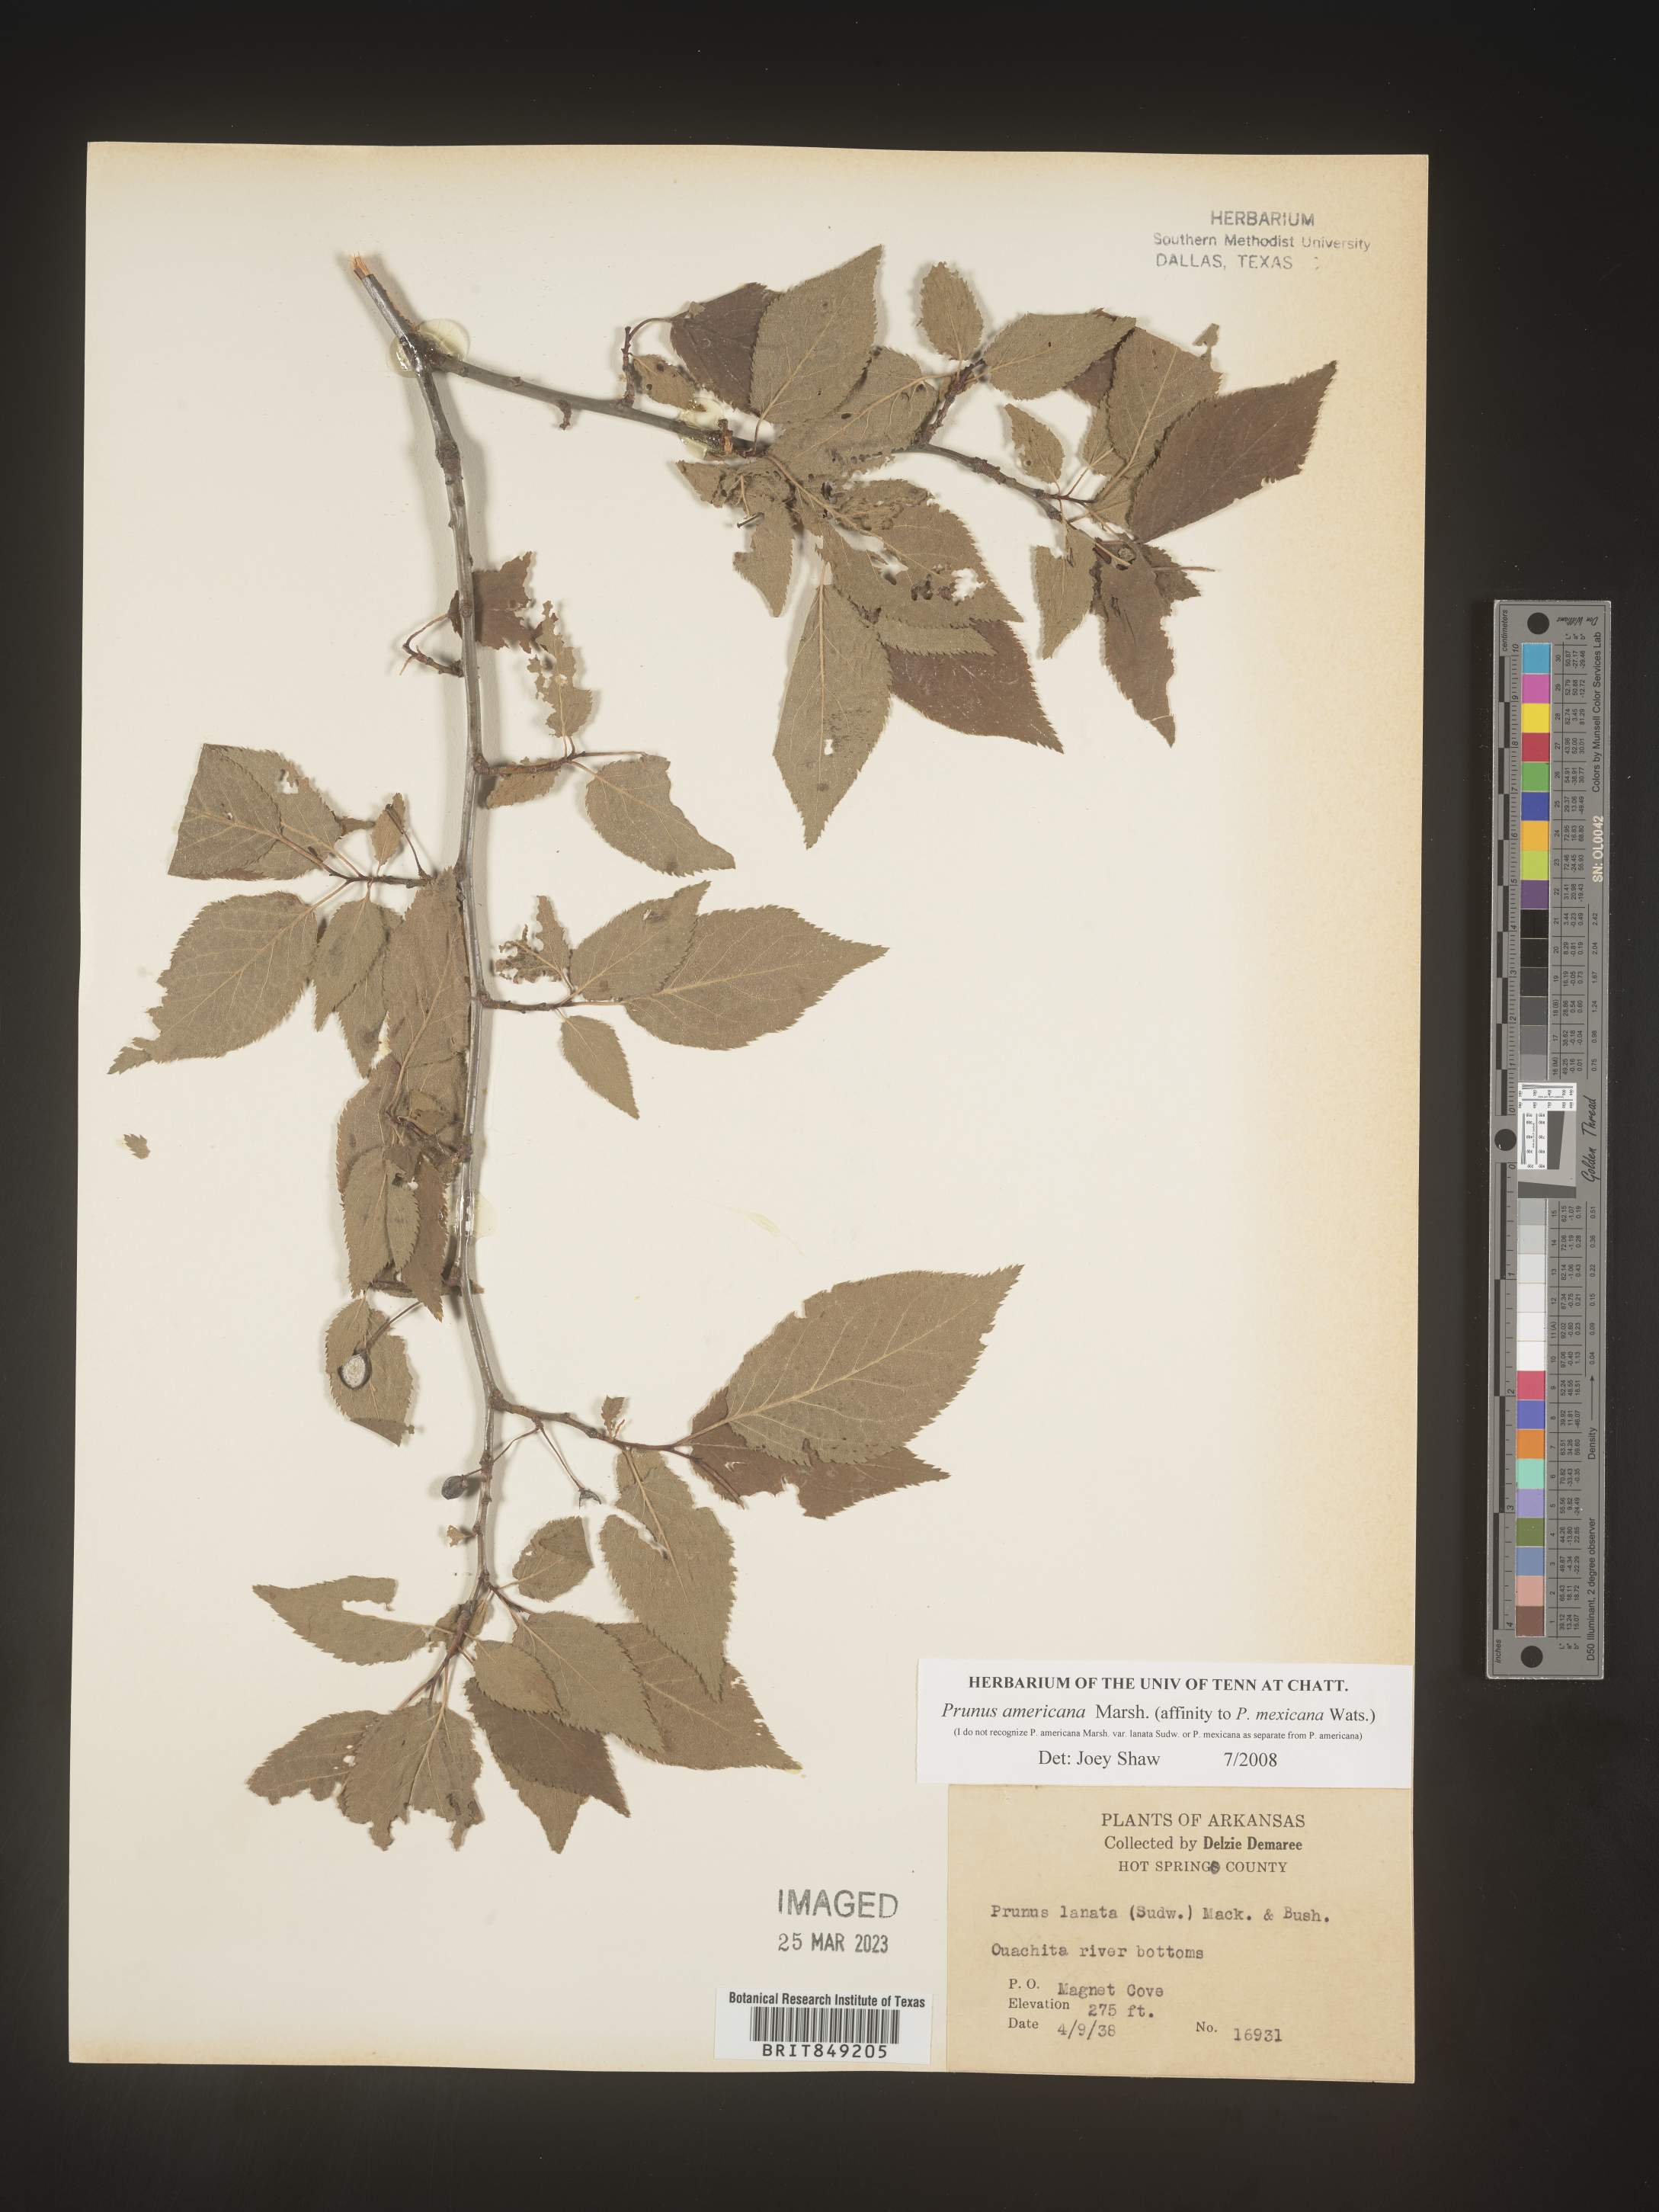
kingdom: Plantae
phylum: Tracheophyta
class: Magnoliopsida
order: Rosales
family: Rosaceae
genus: Prunus
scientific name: Prunus americana
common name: American plum
